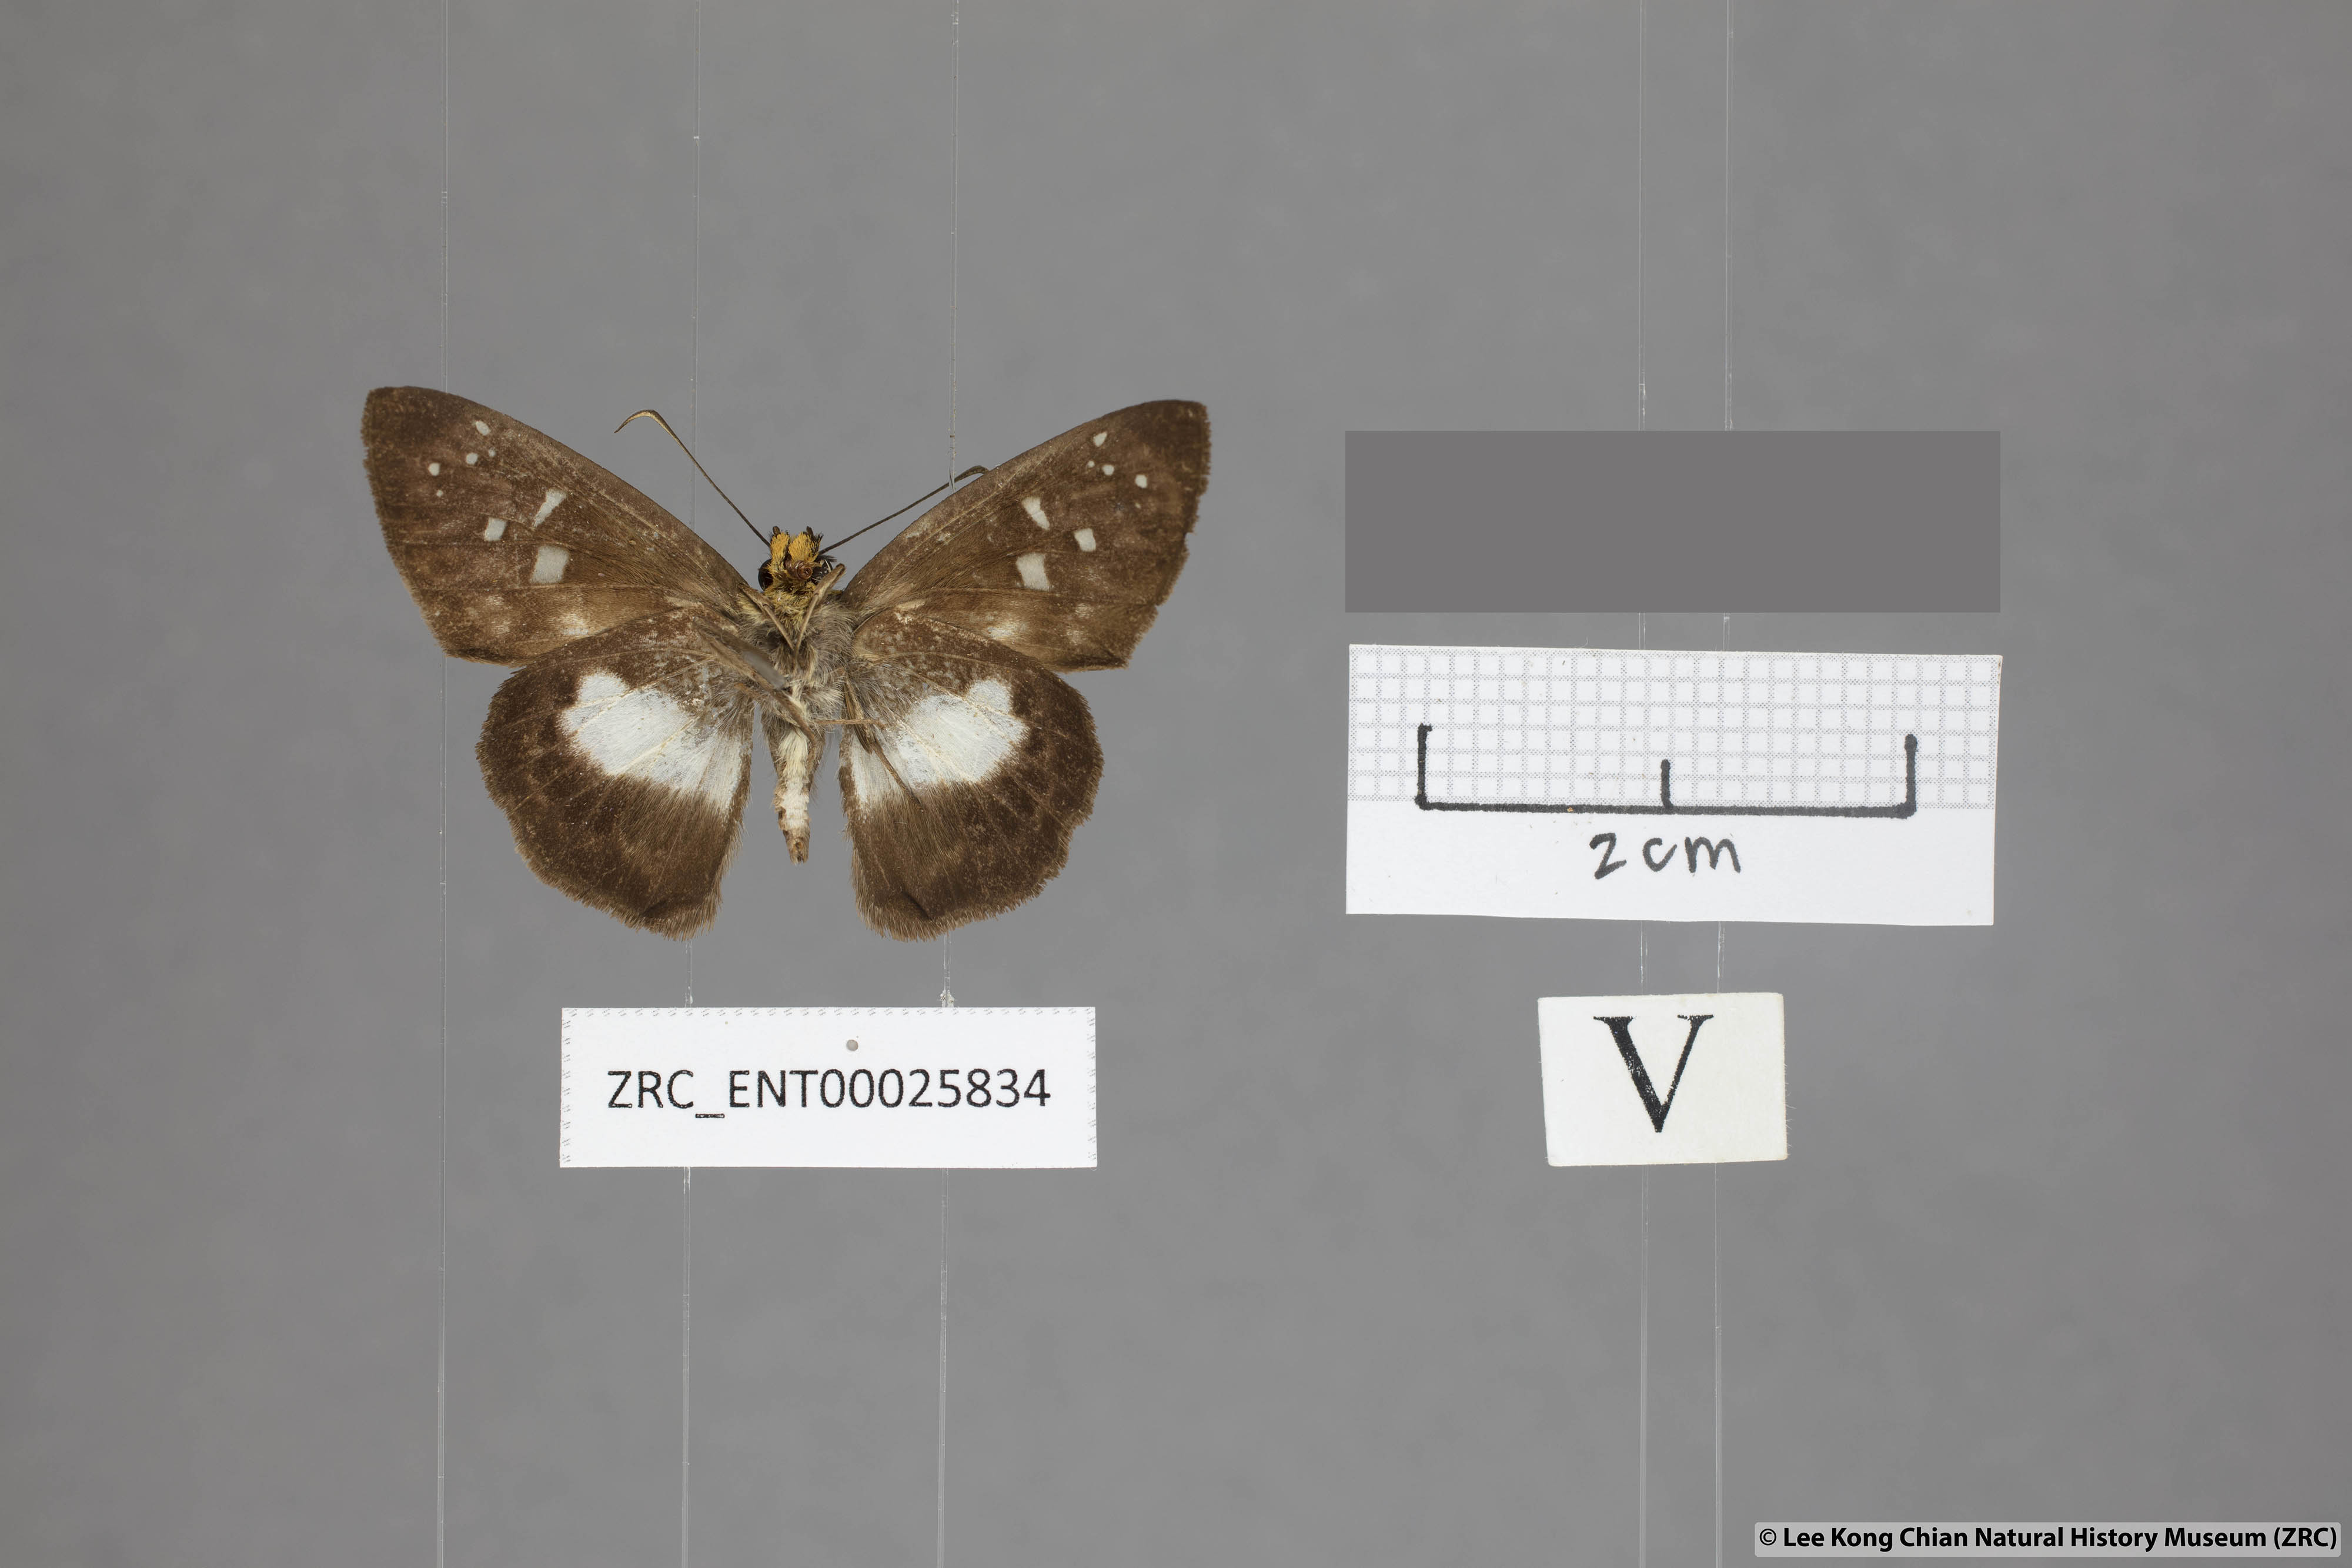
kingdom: Animalia
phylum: Arthropoda
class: Insecta
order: Lepidoptera
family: Hesperiidae
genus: Daimio
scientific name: Daimio
